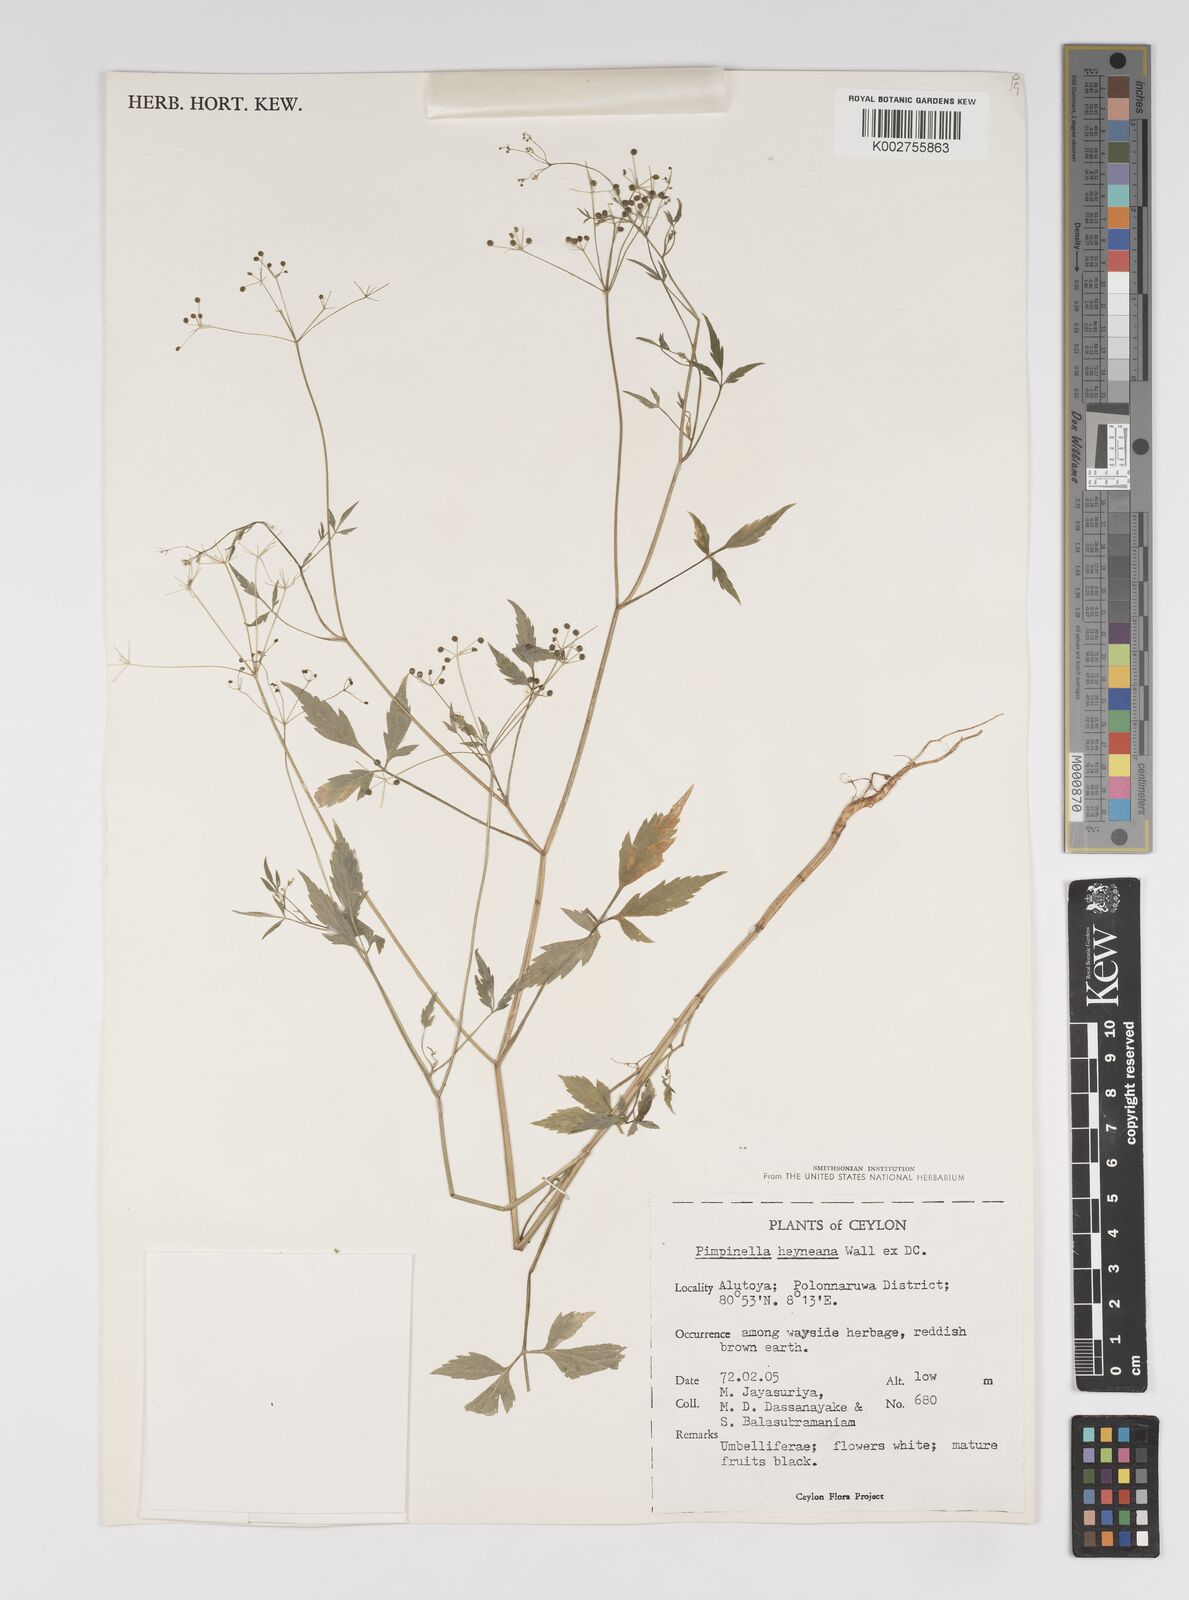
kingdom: Plantae
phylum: Tracheophyta
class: Magnoliopsida
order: Apiales
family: Apiaceae
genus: Pimpinella
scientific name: Pimpinella heyneana
